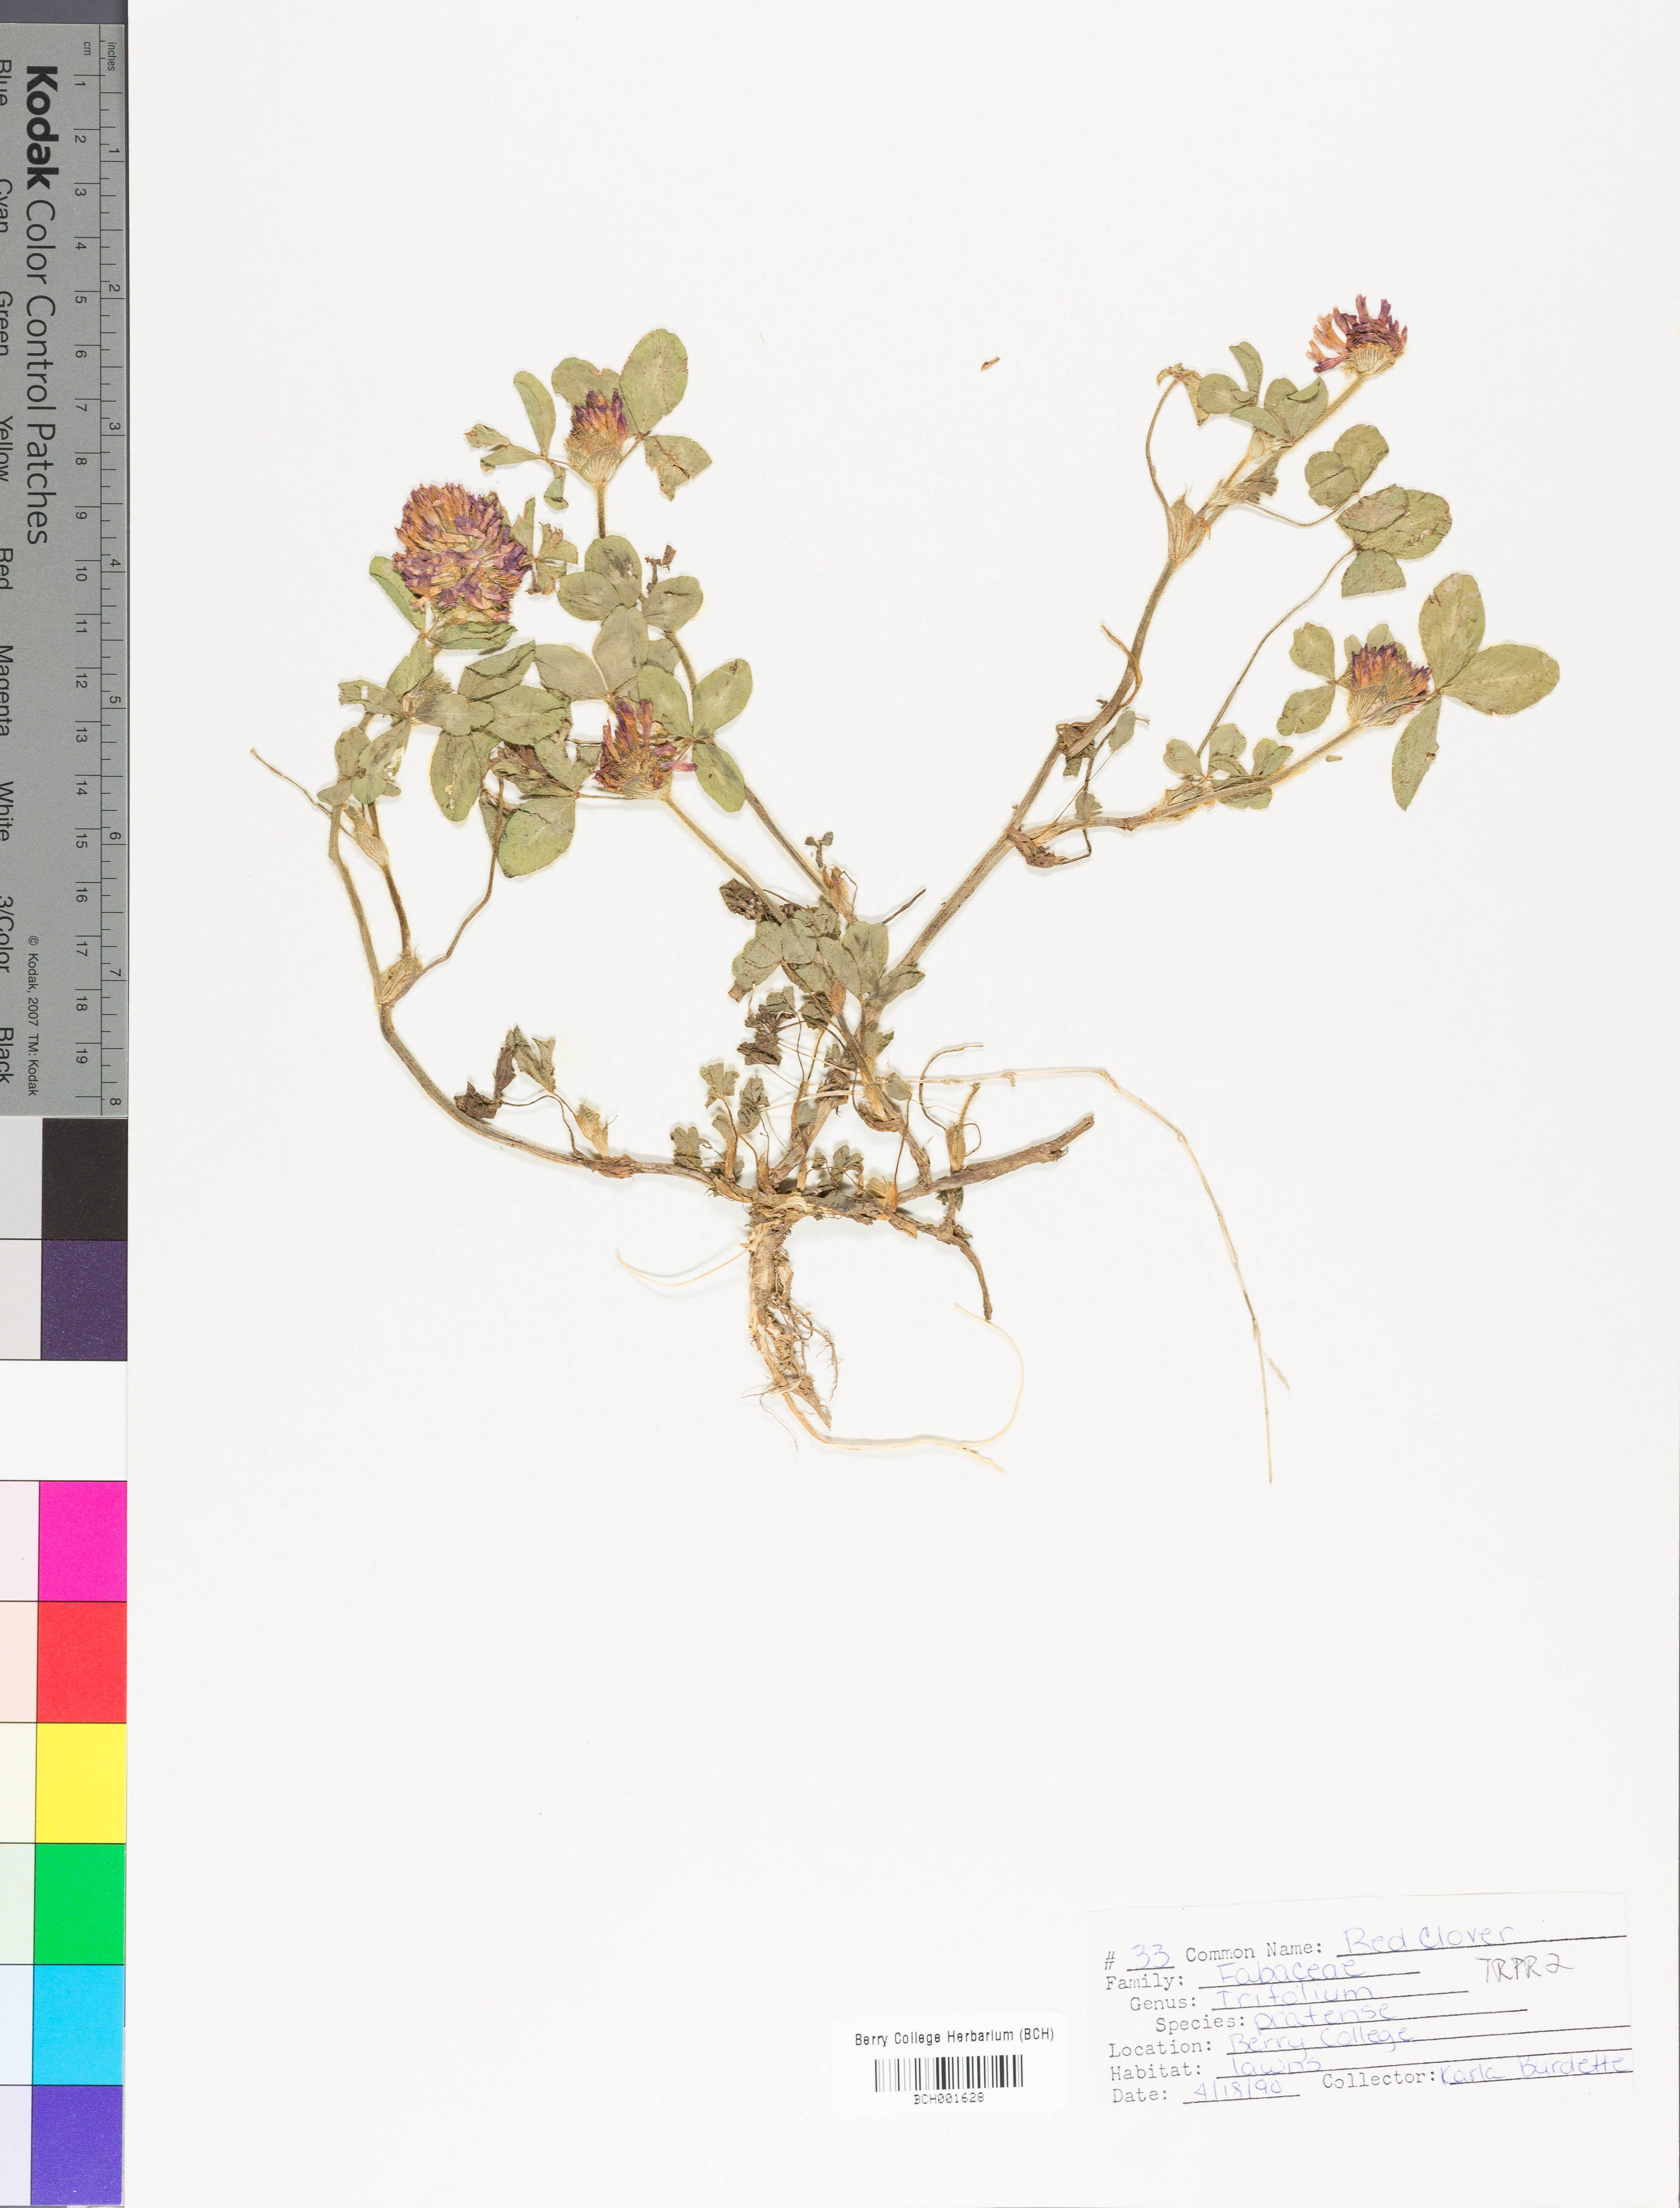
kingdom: Plantae
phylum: Tracheophyta
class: Magnoliopsida
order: Fabales
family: Fabaceae
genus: Trifolium
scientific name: Trifolium pratense
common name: Red clover
